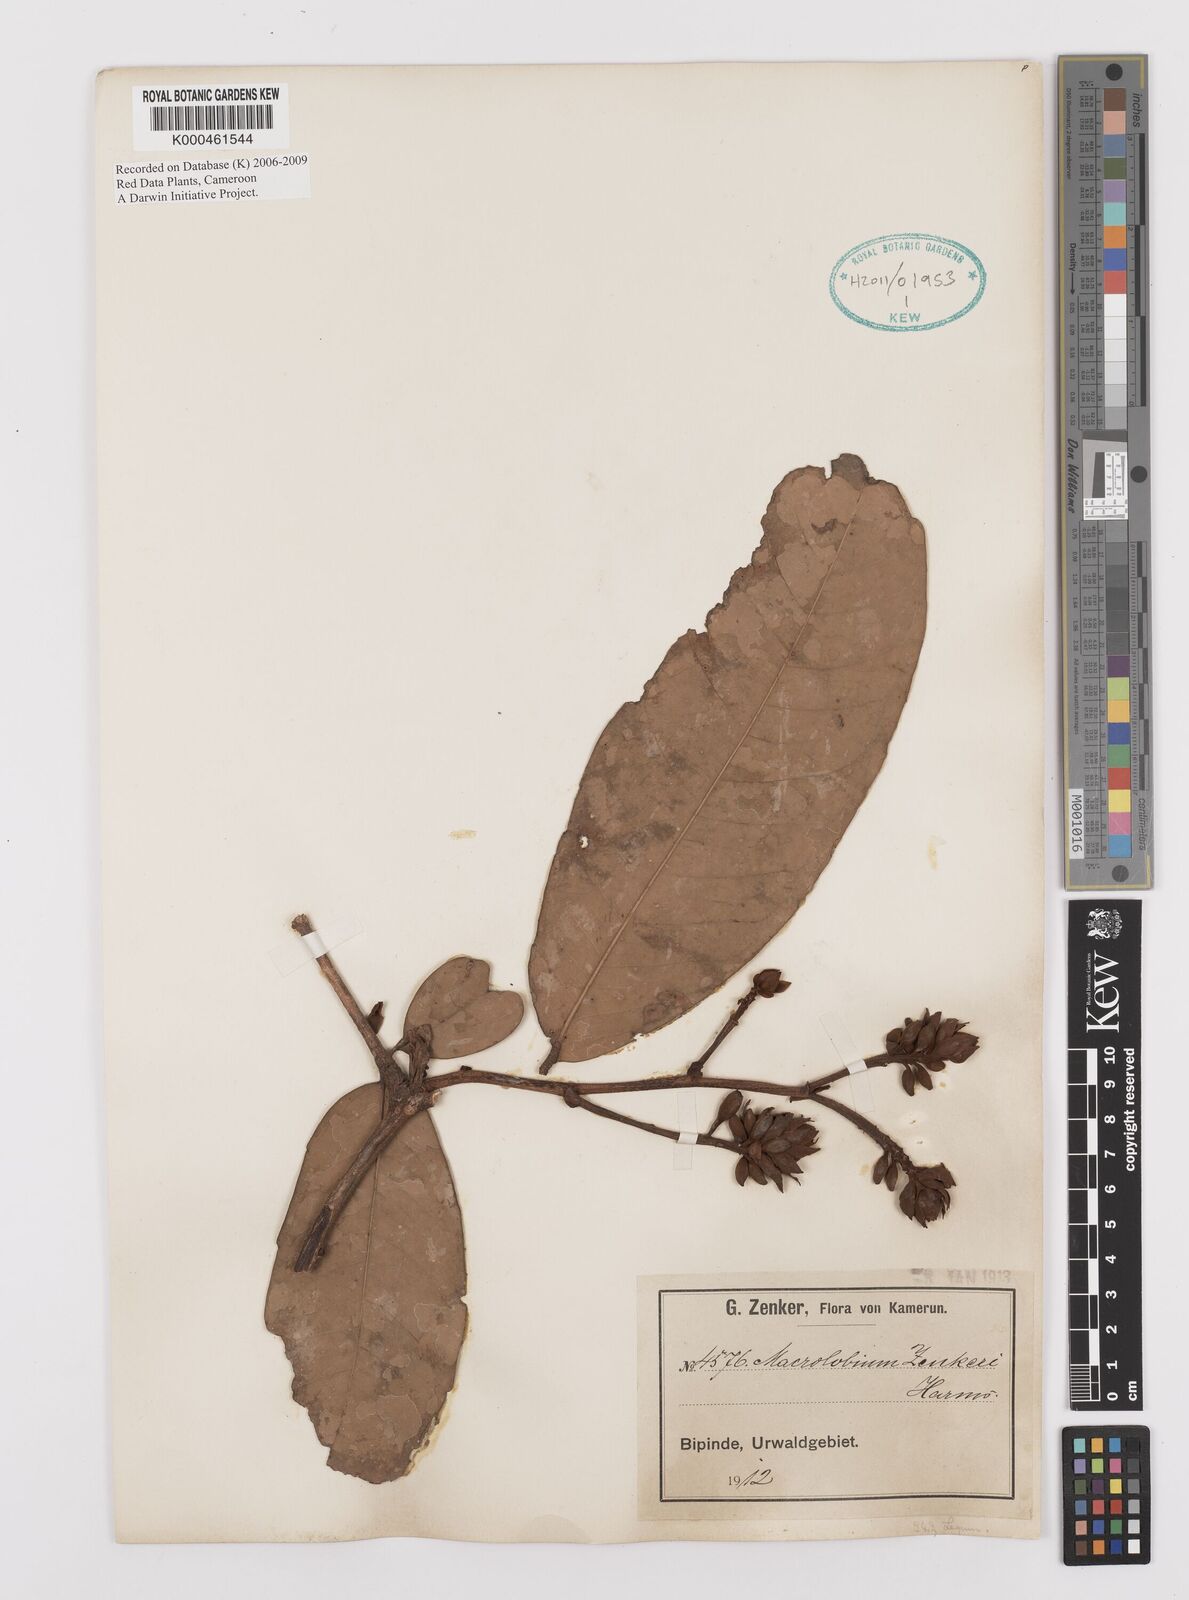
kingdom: Plantae
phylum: Tracheophyta
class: Magnoliopsida
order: Fabales
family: Fabaceae
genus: Gilbertiodendron
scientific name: Gilbertiodendron zenkeri
